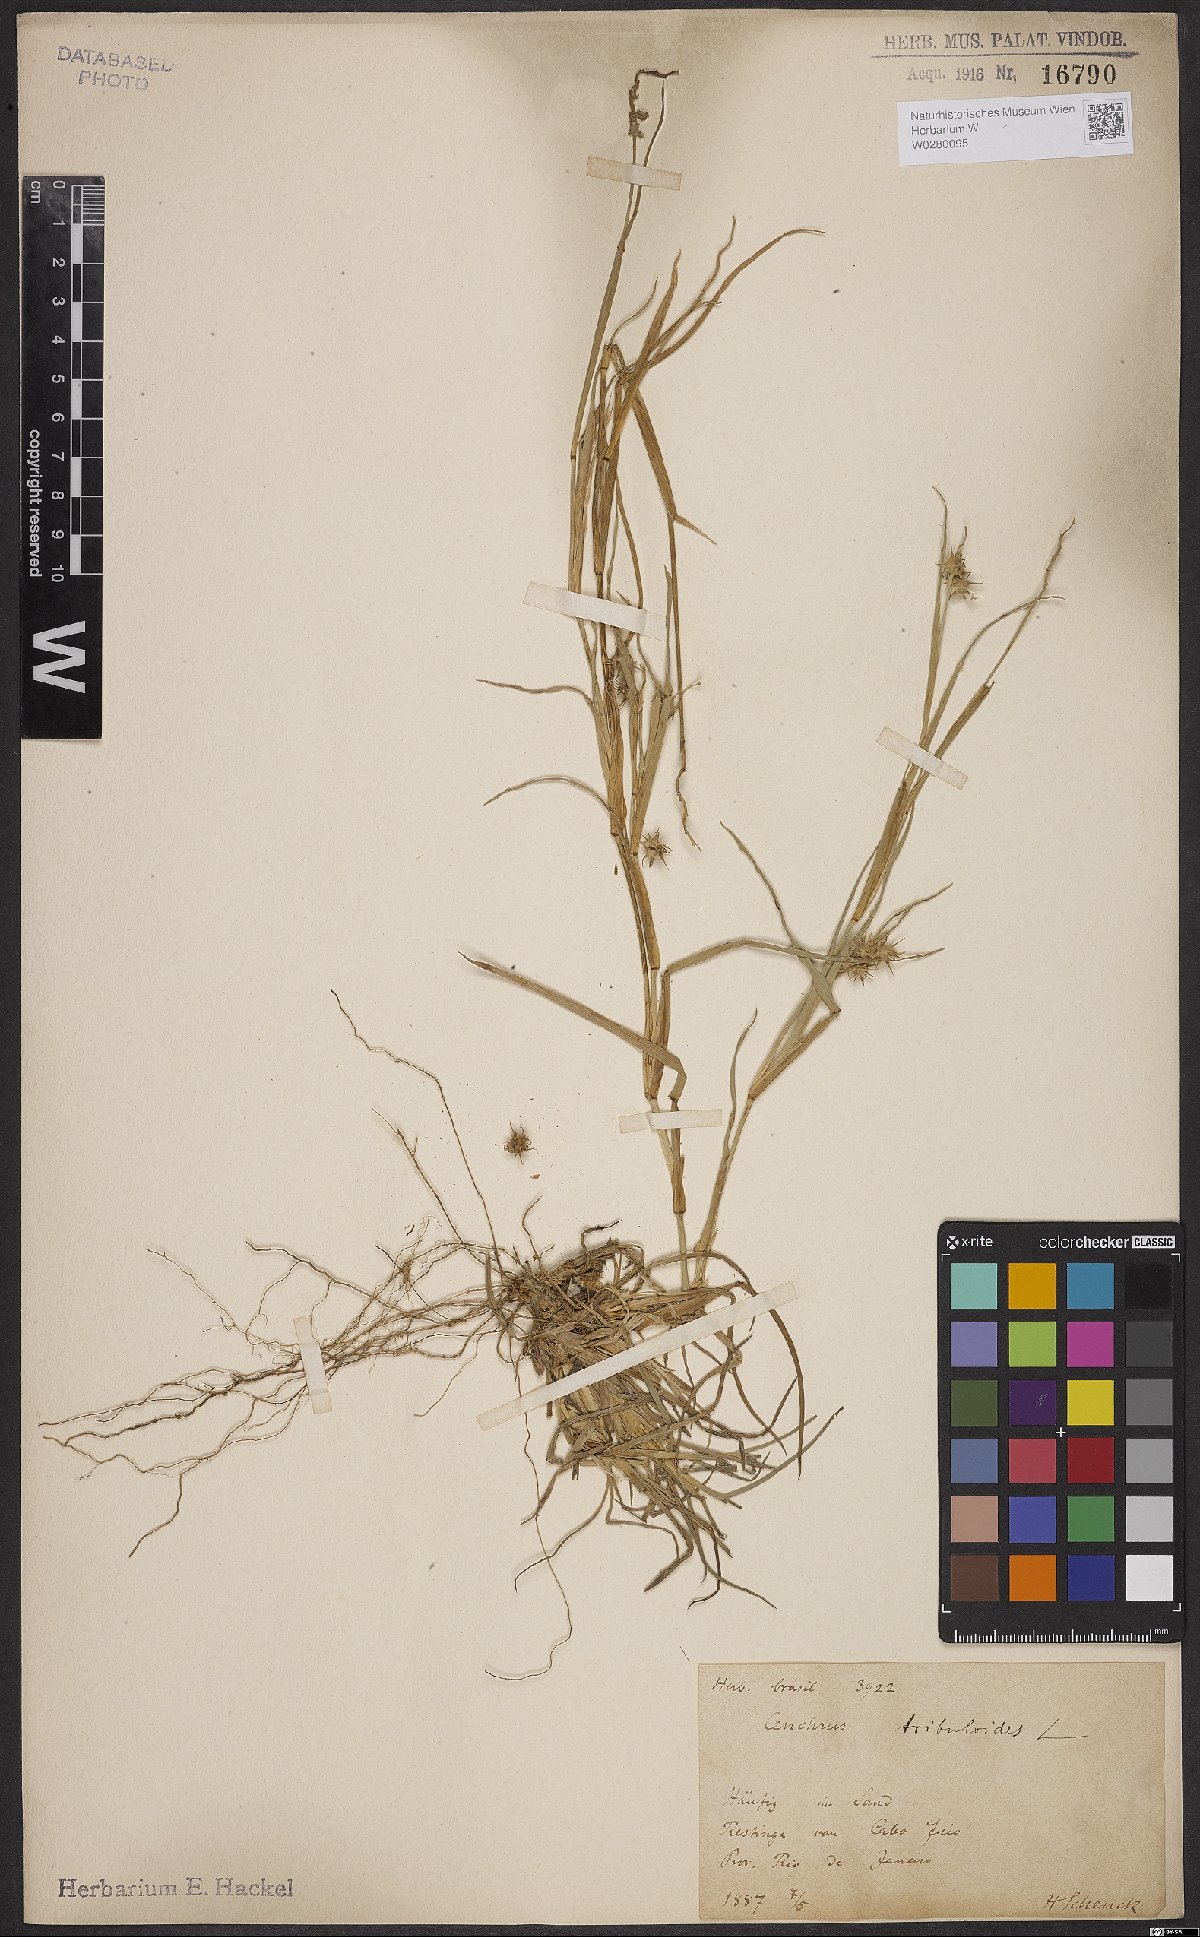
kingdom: Plantae
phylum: Tracheophyta
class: Liliopsida
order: Poales
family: Poaceae
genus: Cenchrus
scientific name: Cenchrus tribuloides
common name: Dune sandbur
